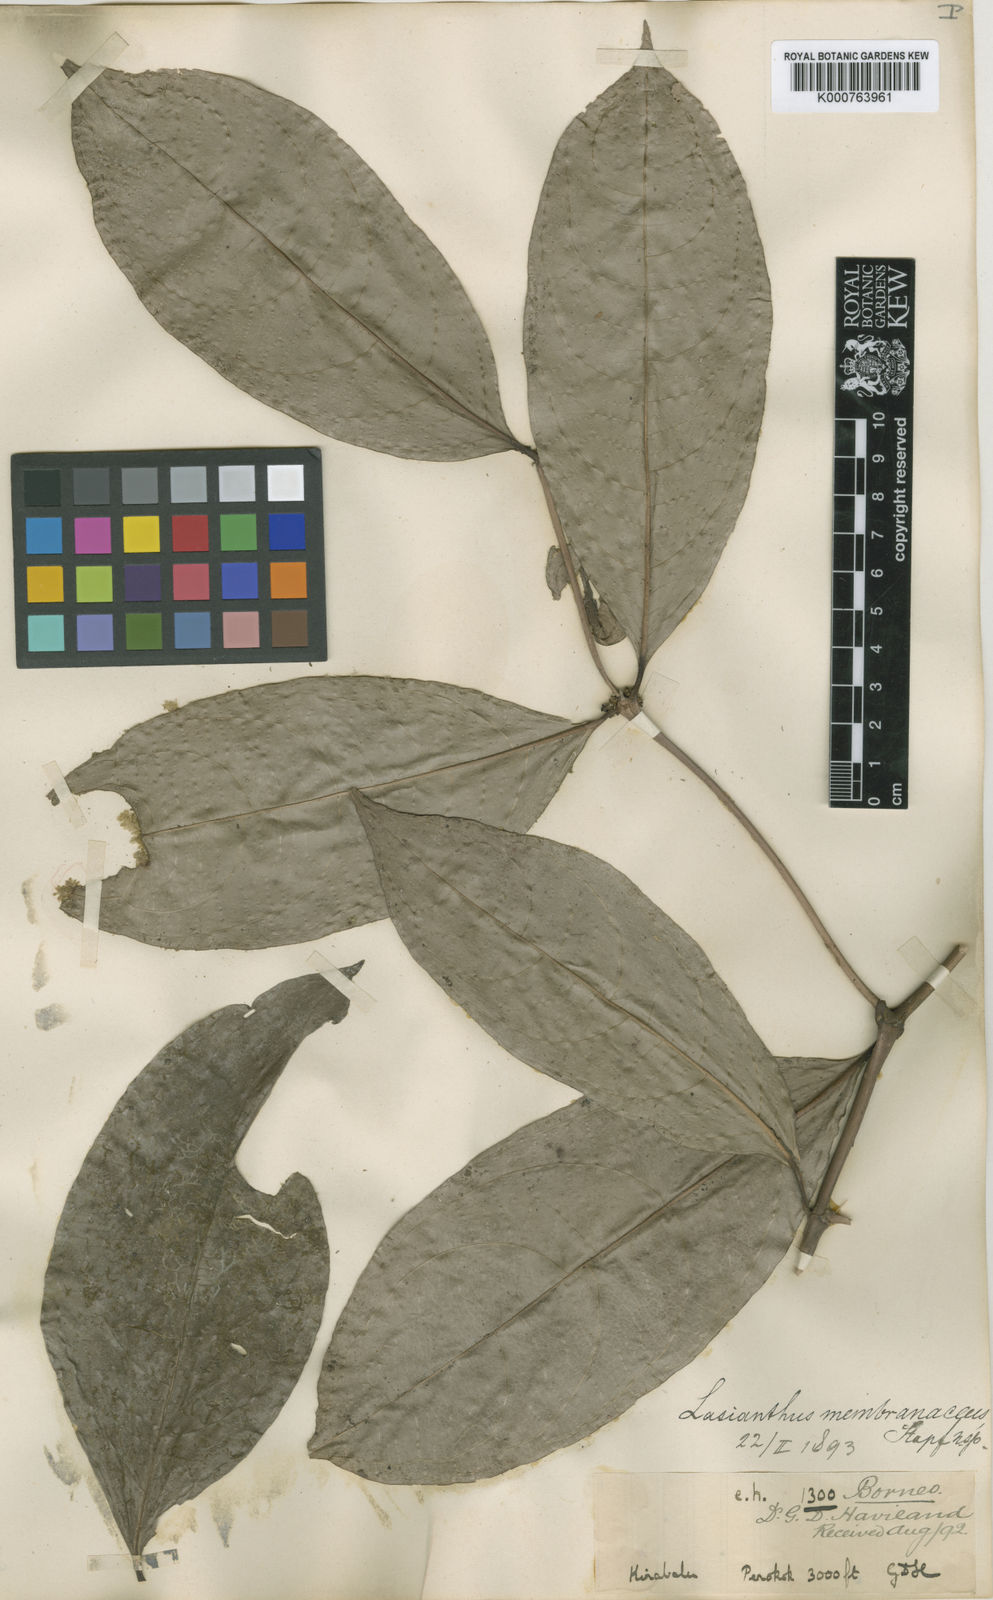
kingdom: Plantae
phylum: Tracheophyta
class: Magnoliopsida
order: Gentianales
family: Rubiaceae
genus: Lasianthus
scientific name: Lasianthus membranaceus
